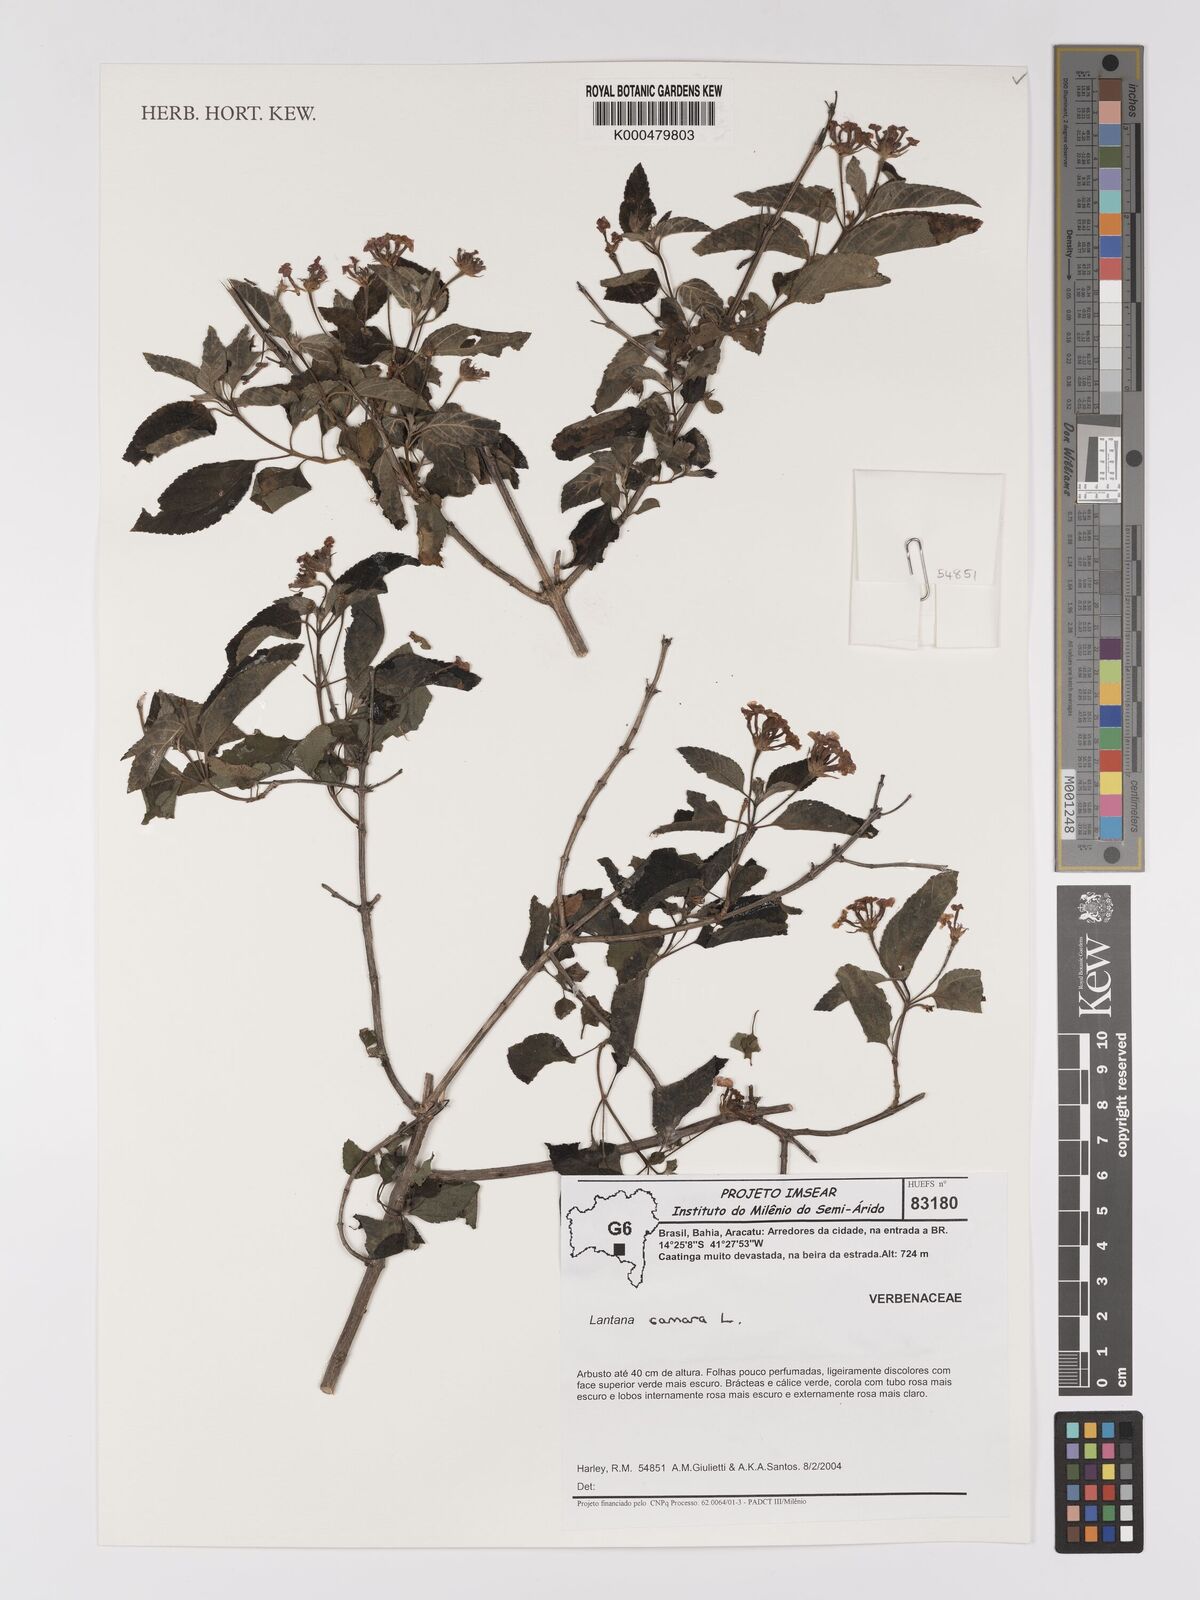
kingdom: Plantae
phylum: Tracheophyta
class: Magnoliopsida
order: Lamiales
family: Verbenaceae
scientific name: Verbenaceae
